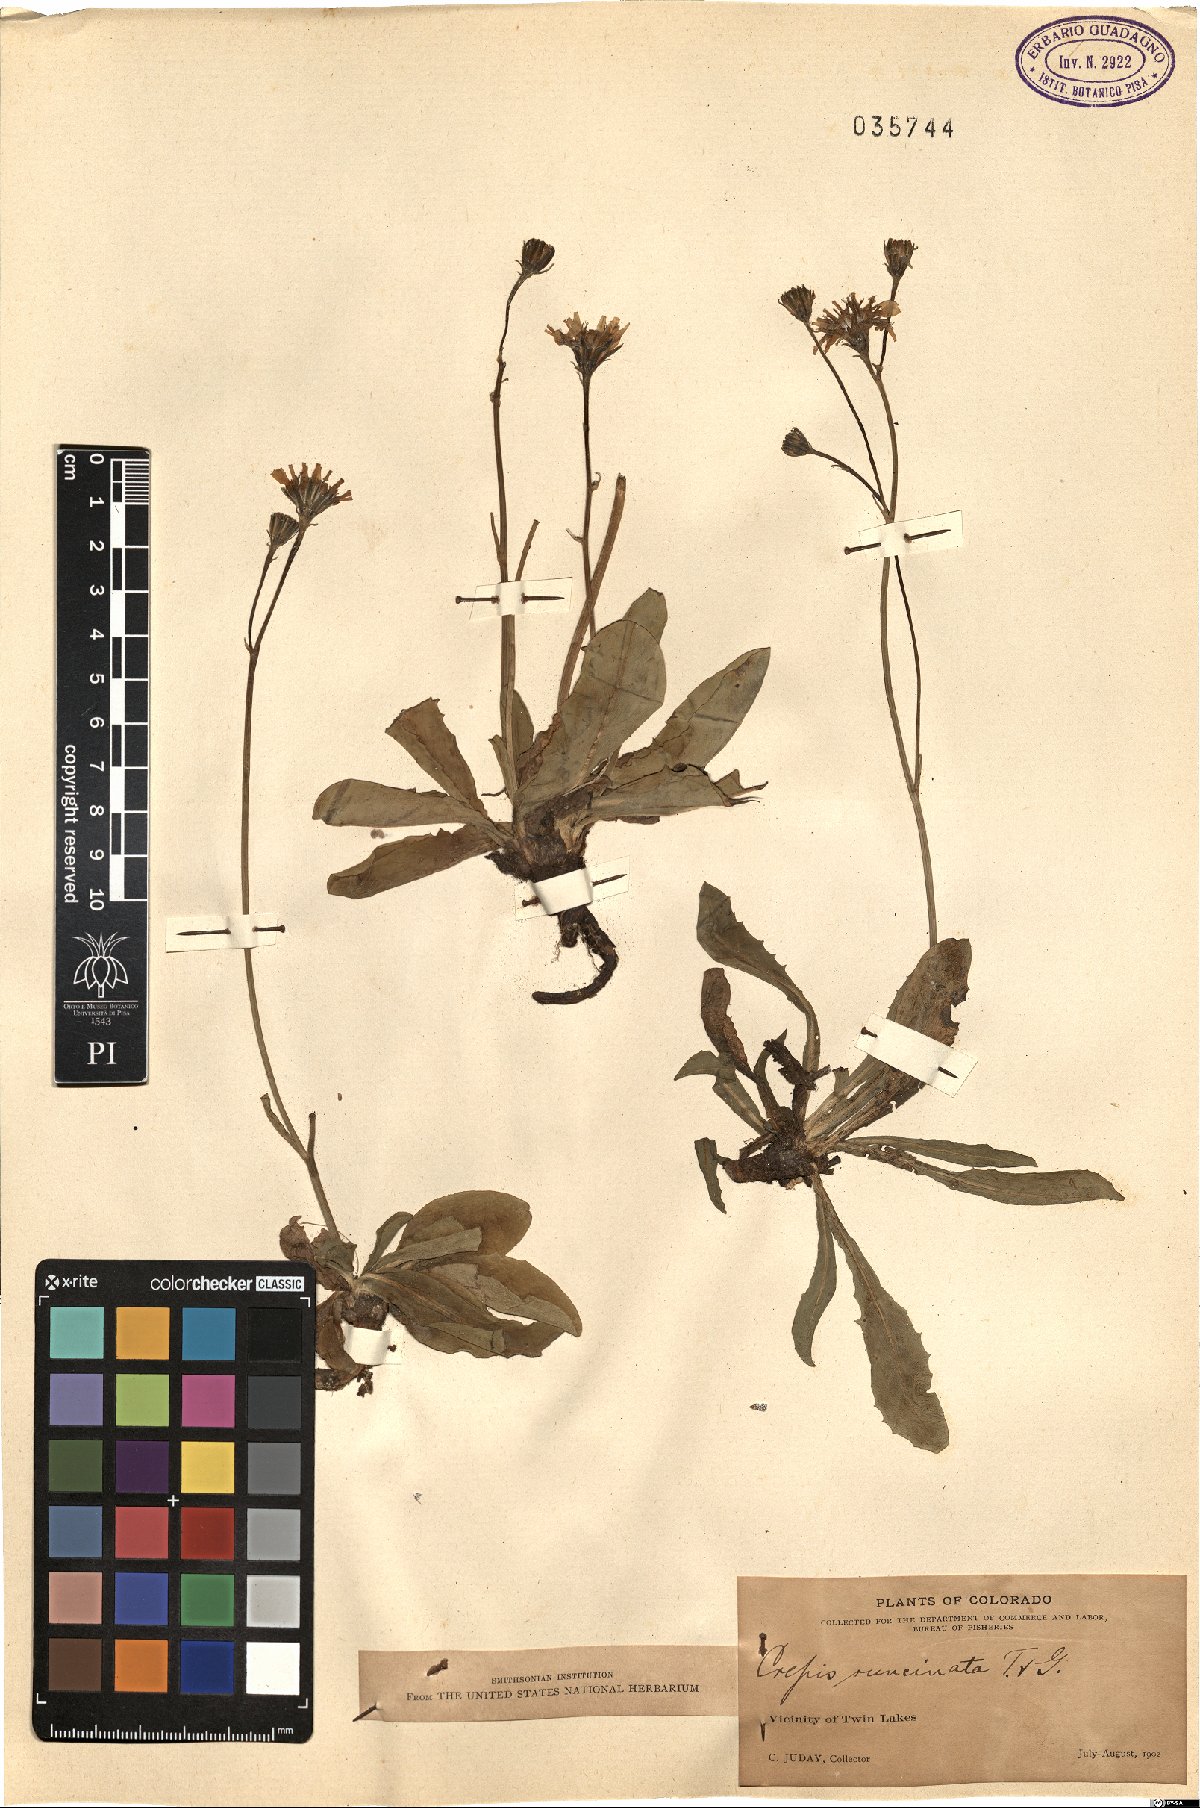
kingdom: Plantae
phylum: Tracheophyta
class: Magnoliopsida
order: Asterales
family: Asteraceae
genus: Crepis
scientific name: Crepis runcinata
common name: Dandelion hawksbeard
